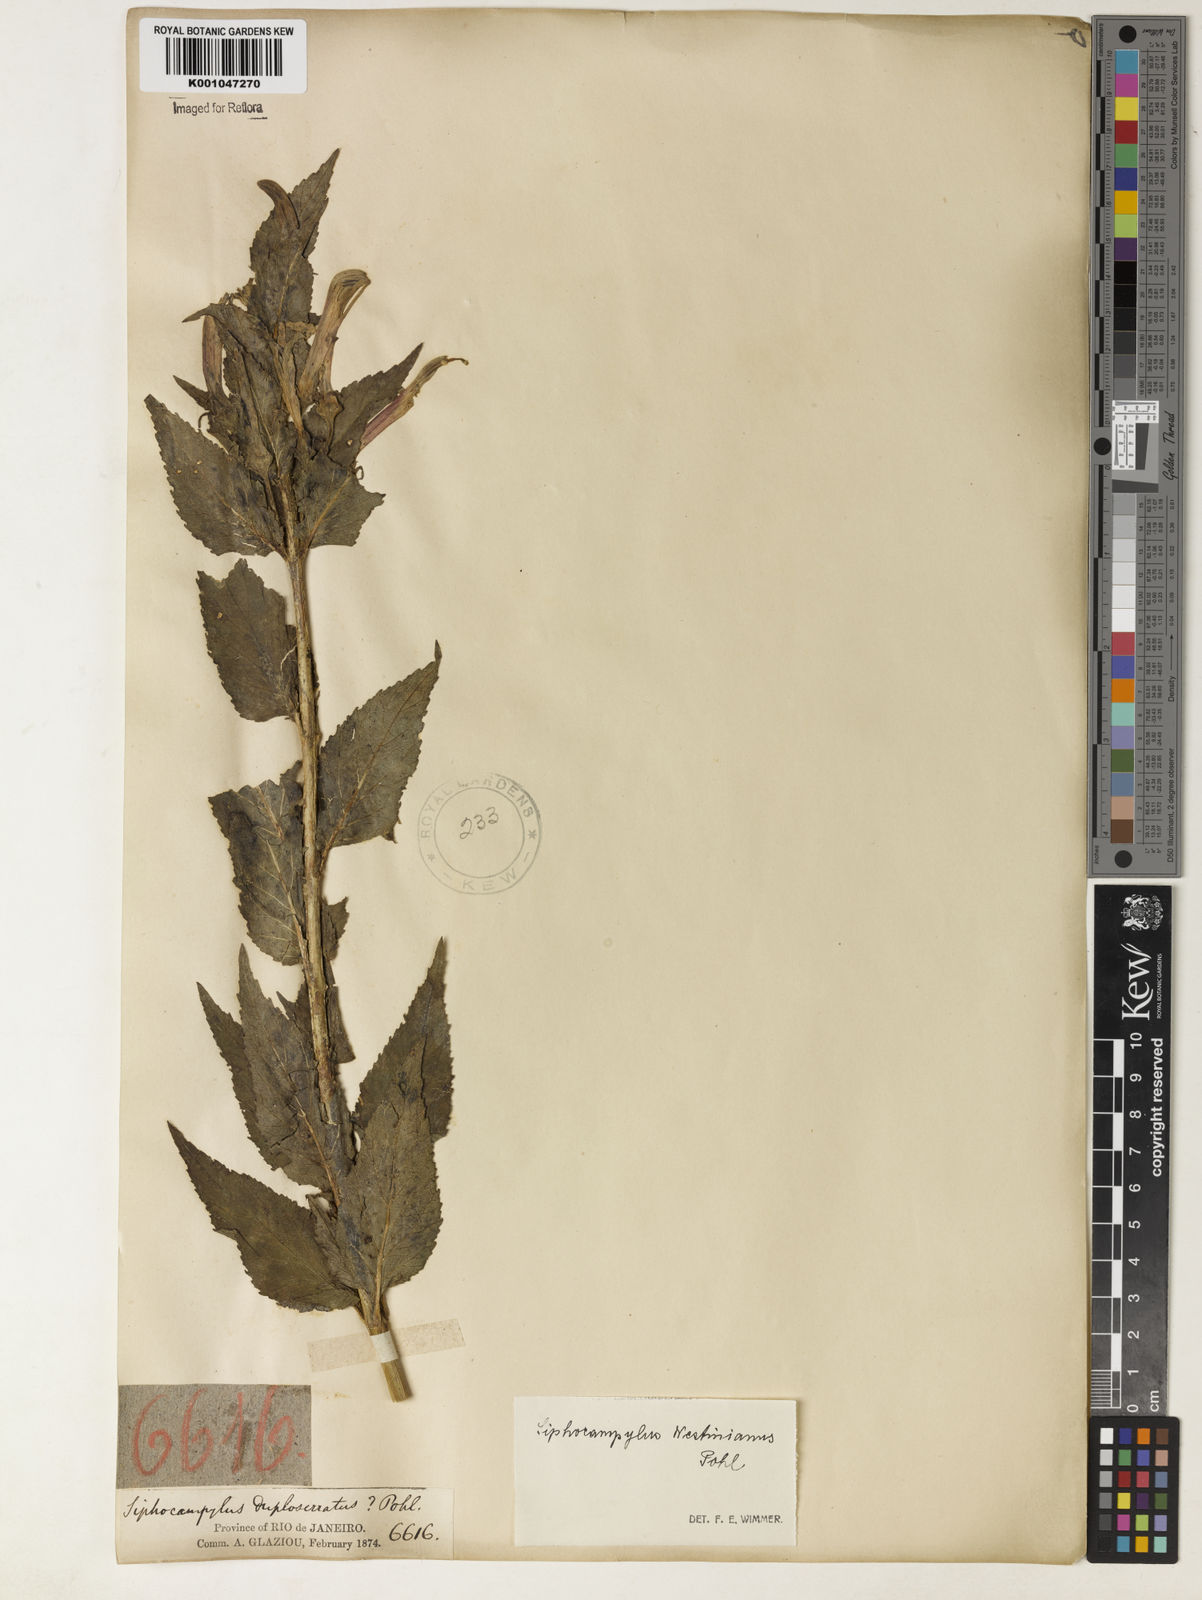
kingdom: Plantae
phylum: Tracheophyta
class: Magnoliopsida
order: Asterales
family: Campanulaceae
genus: Siphocampylus
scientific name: Siphocampylus westinianus
